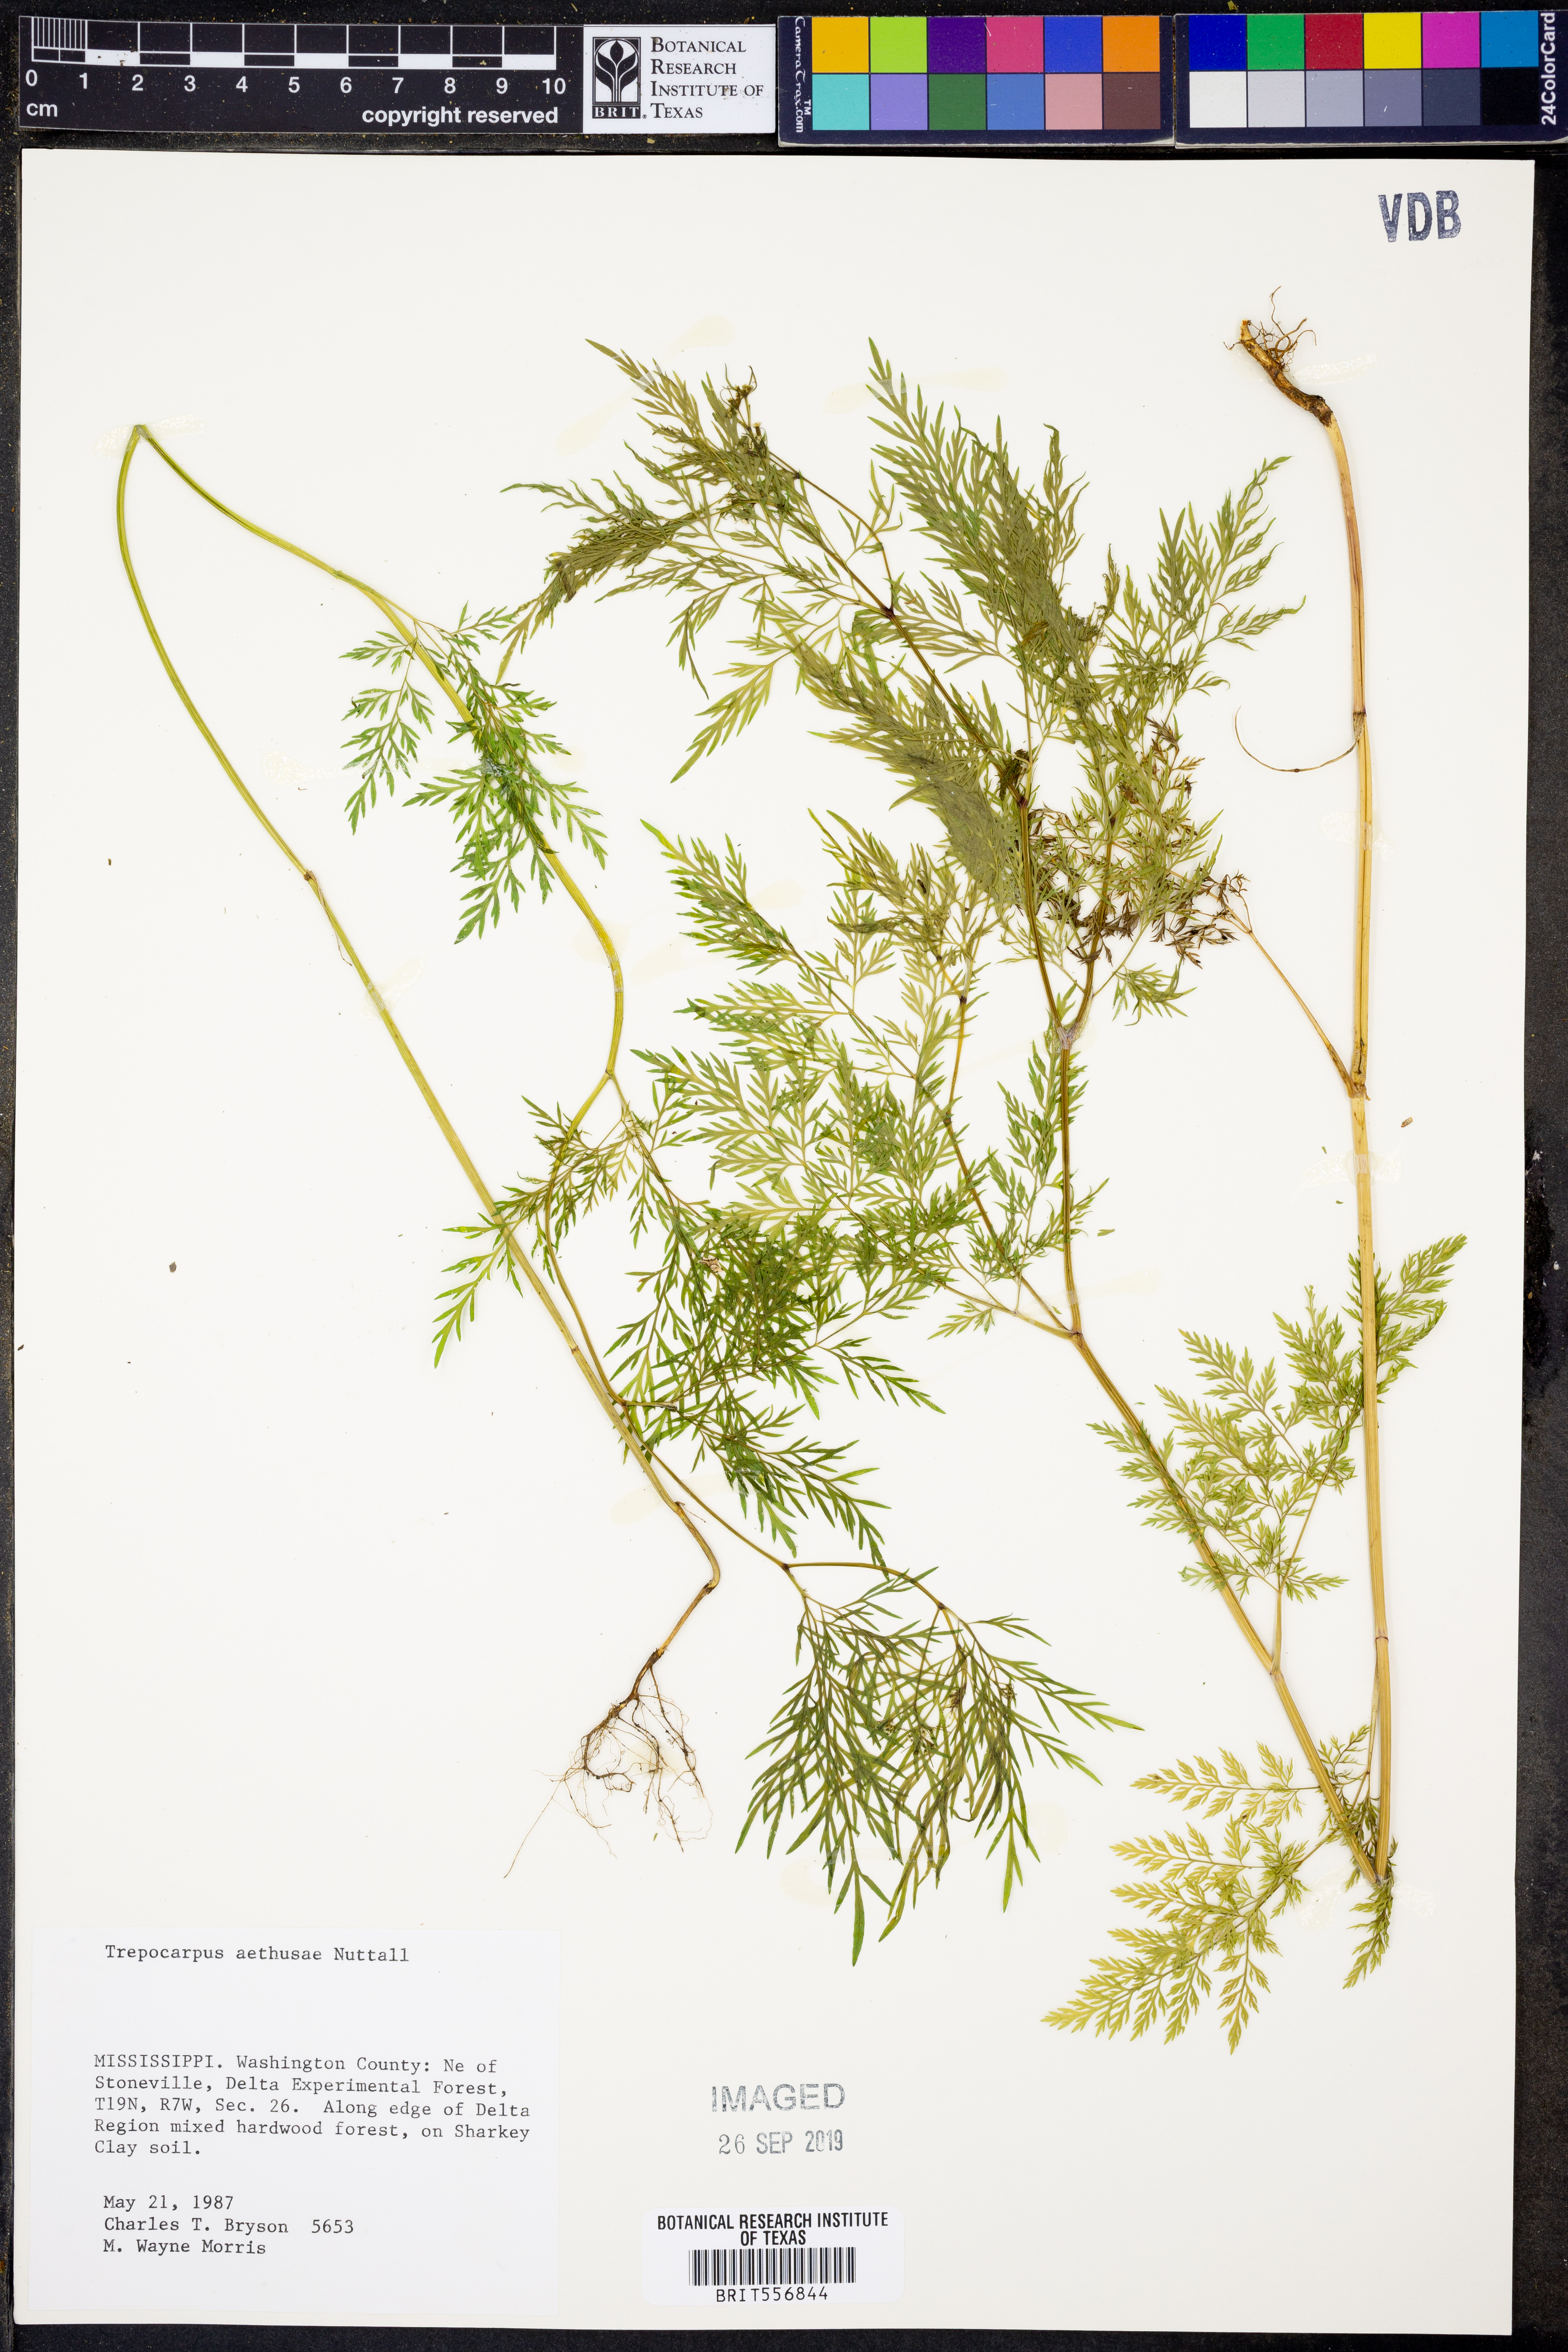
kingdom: Plantae
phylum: Tracheophyta
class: Magnoliopsida
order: Apiales
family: Apiaceae
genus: Trepocarpus
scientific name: Trepocarpus aethusae
